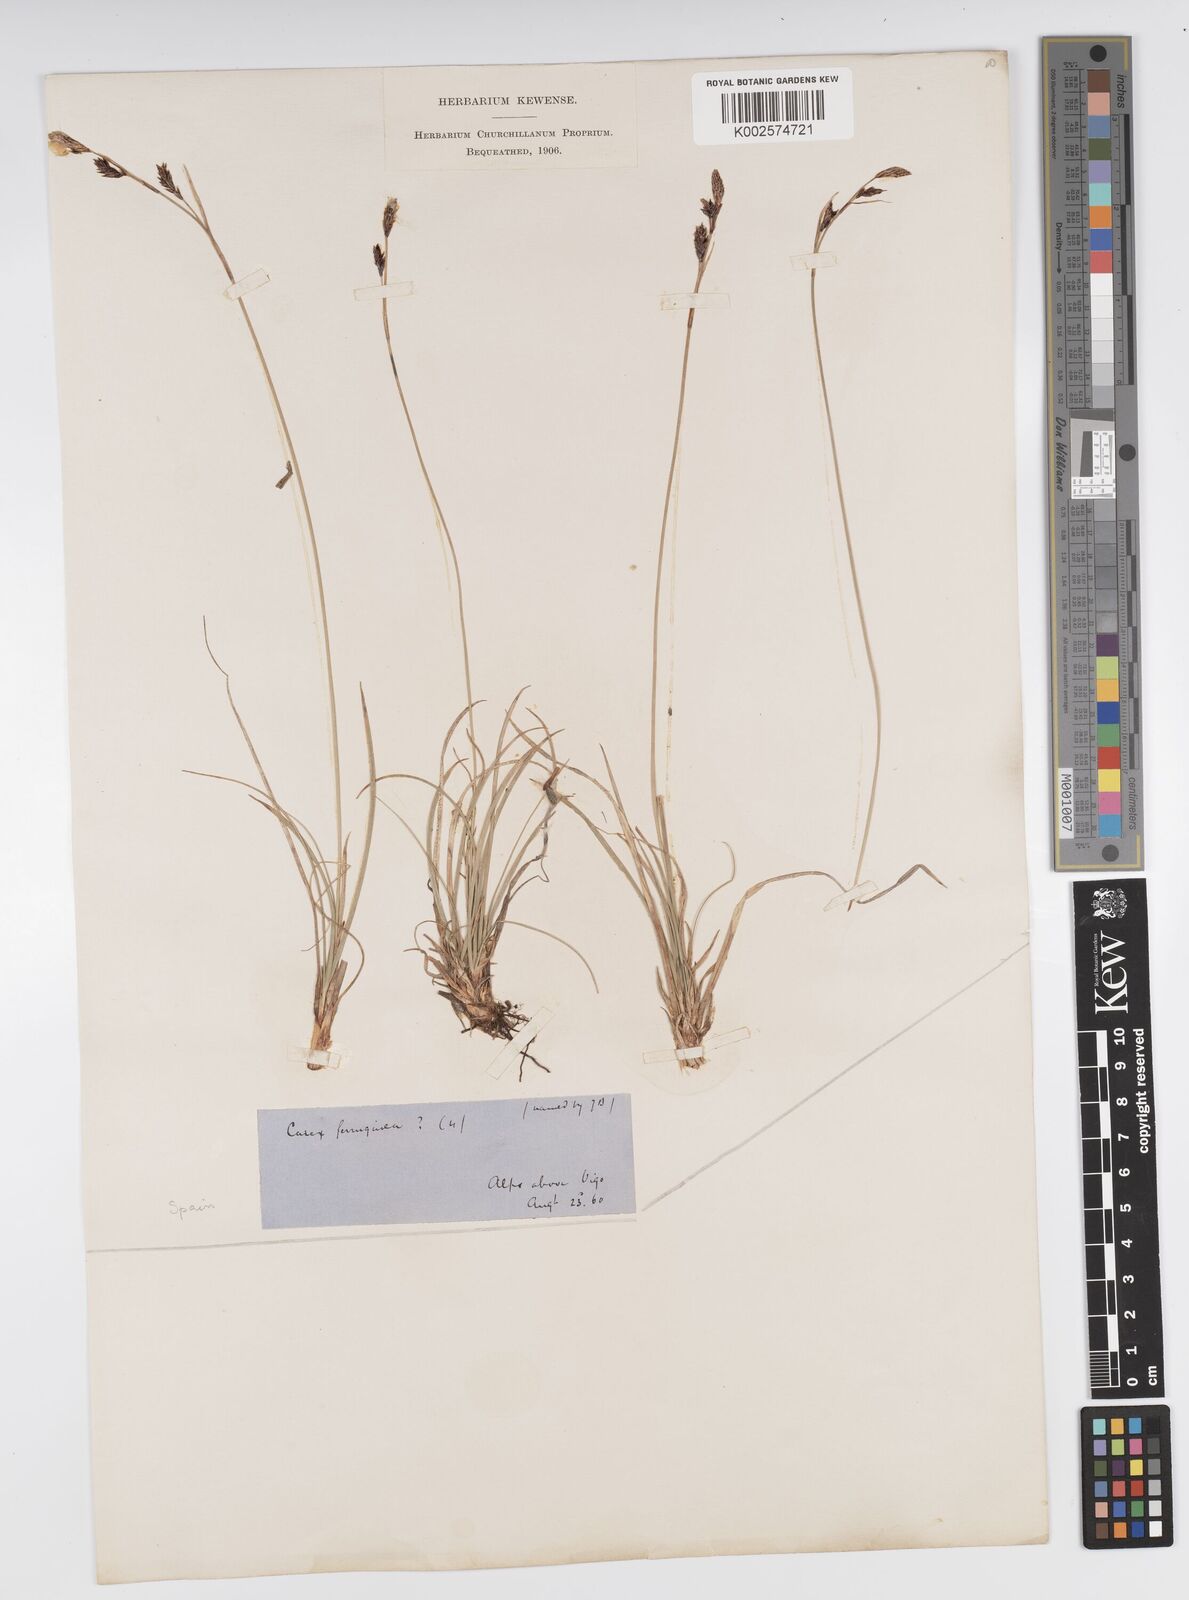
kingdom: Plantae
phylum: Tracheophyta
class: Liliopsida
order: Poales
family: Cyperaceae
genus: Carex
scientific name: Carex ferruginea
